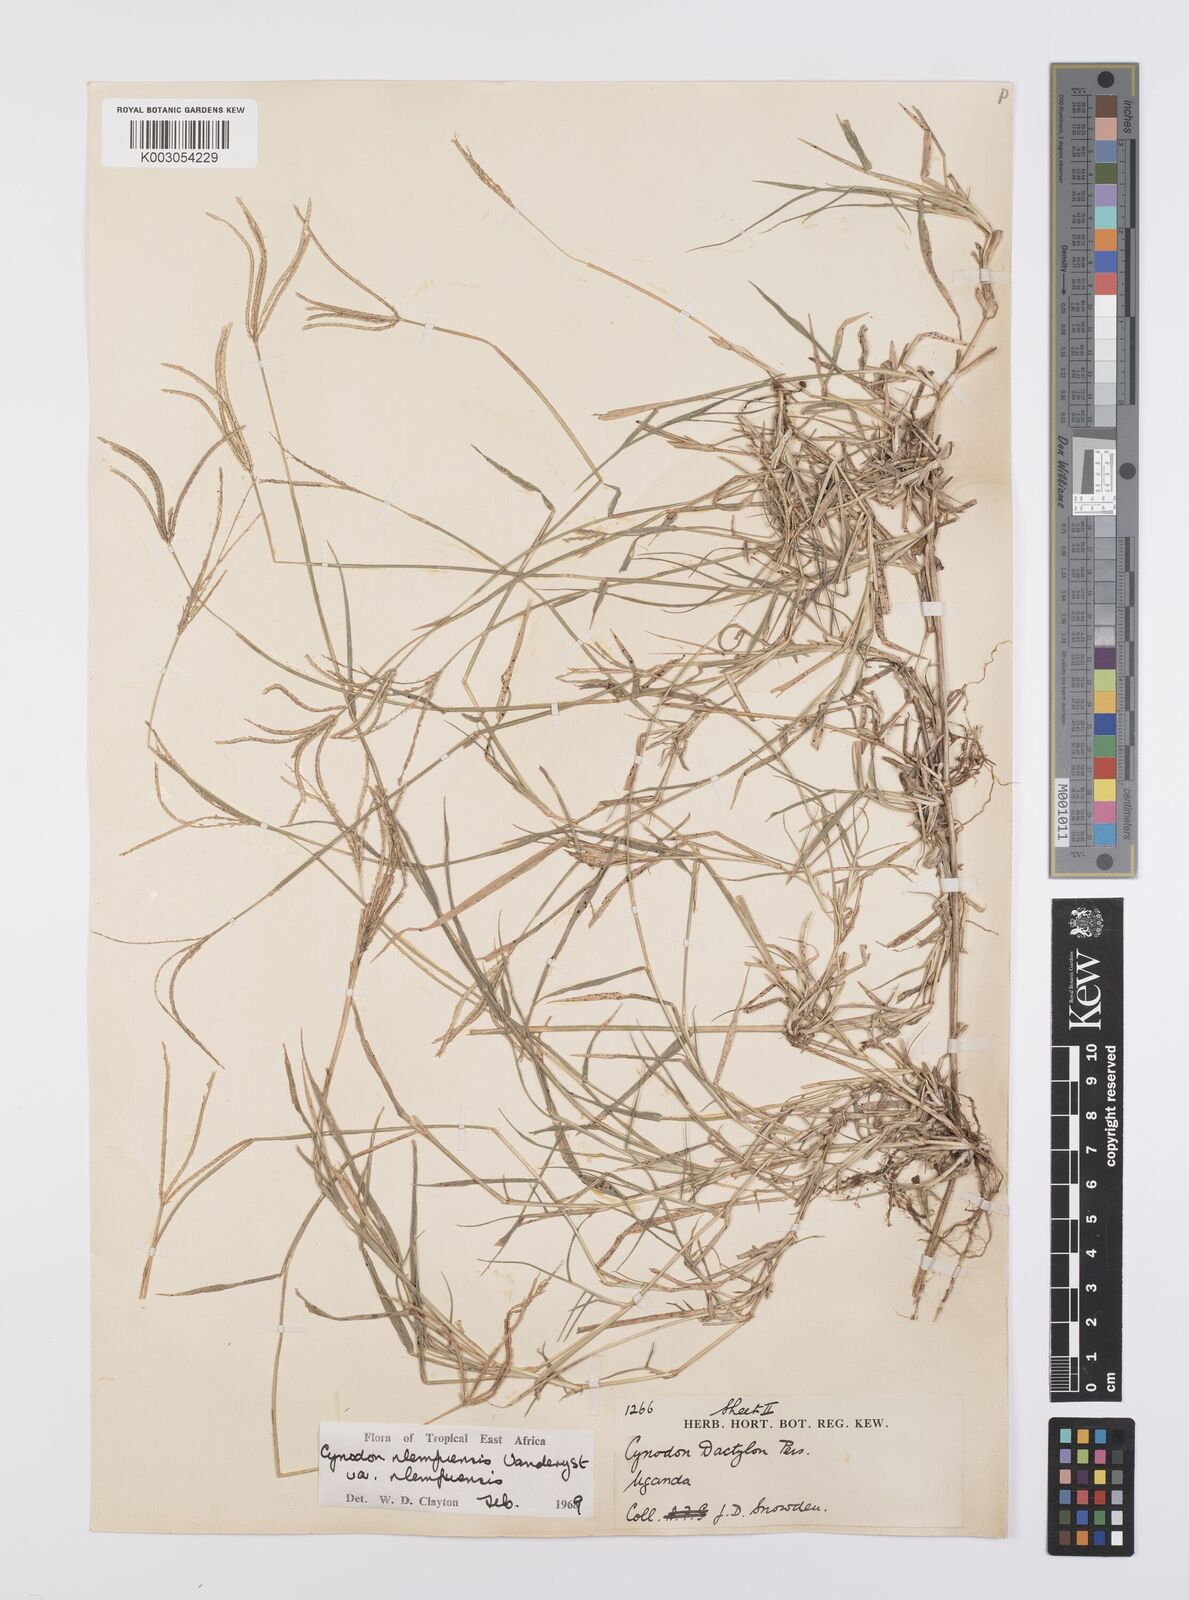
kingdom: Plantae
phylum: Tracheophyta
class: Liliopsida
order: Poales
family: Poaceae
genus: Cynodon
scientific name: Cynodon nlemfuensis
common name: African bermudagrass
